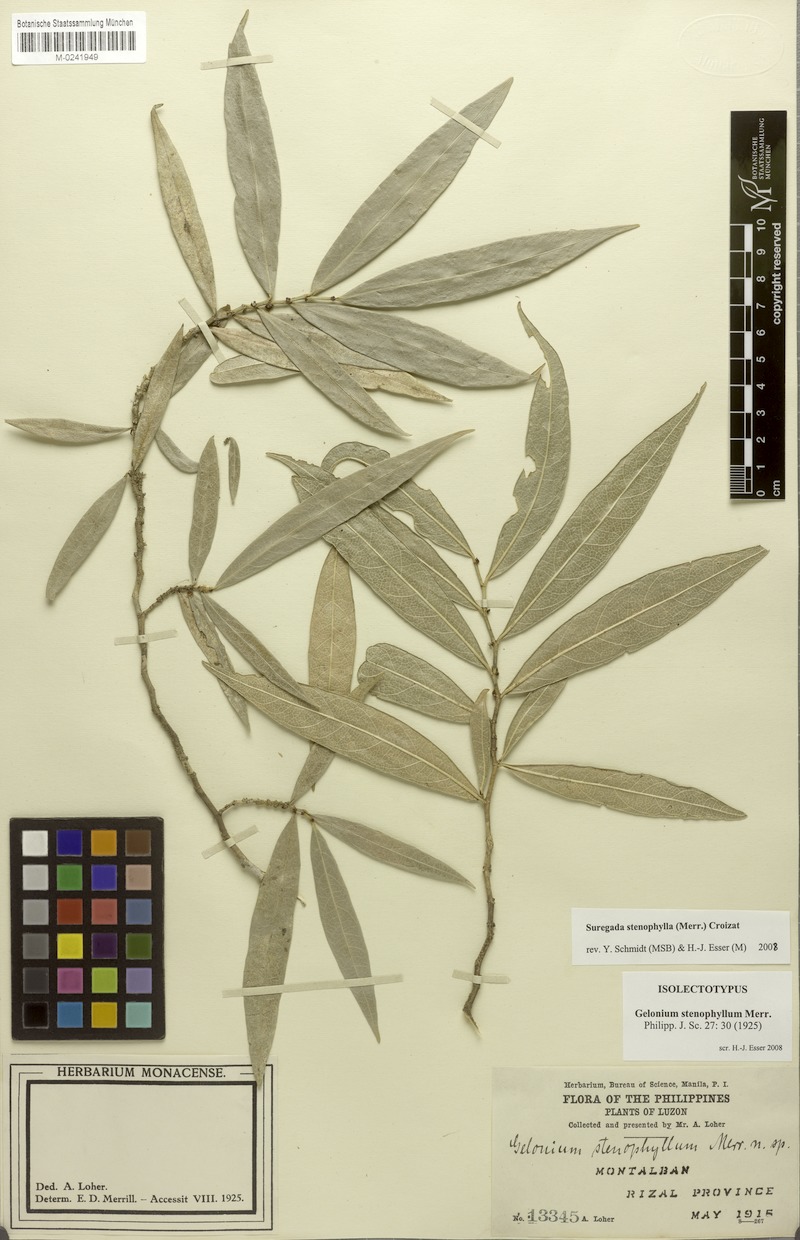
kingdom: Plantae
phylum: Tracheophyta
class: Magnoliopsida
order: Malpighiales
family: Euphorbiaceae
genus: Suregada
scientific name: Suregada stenophylla
